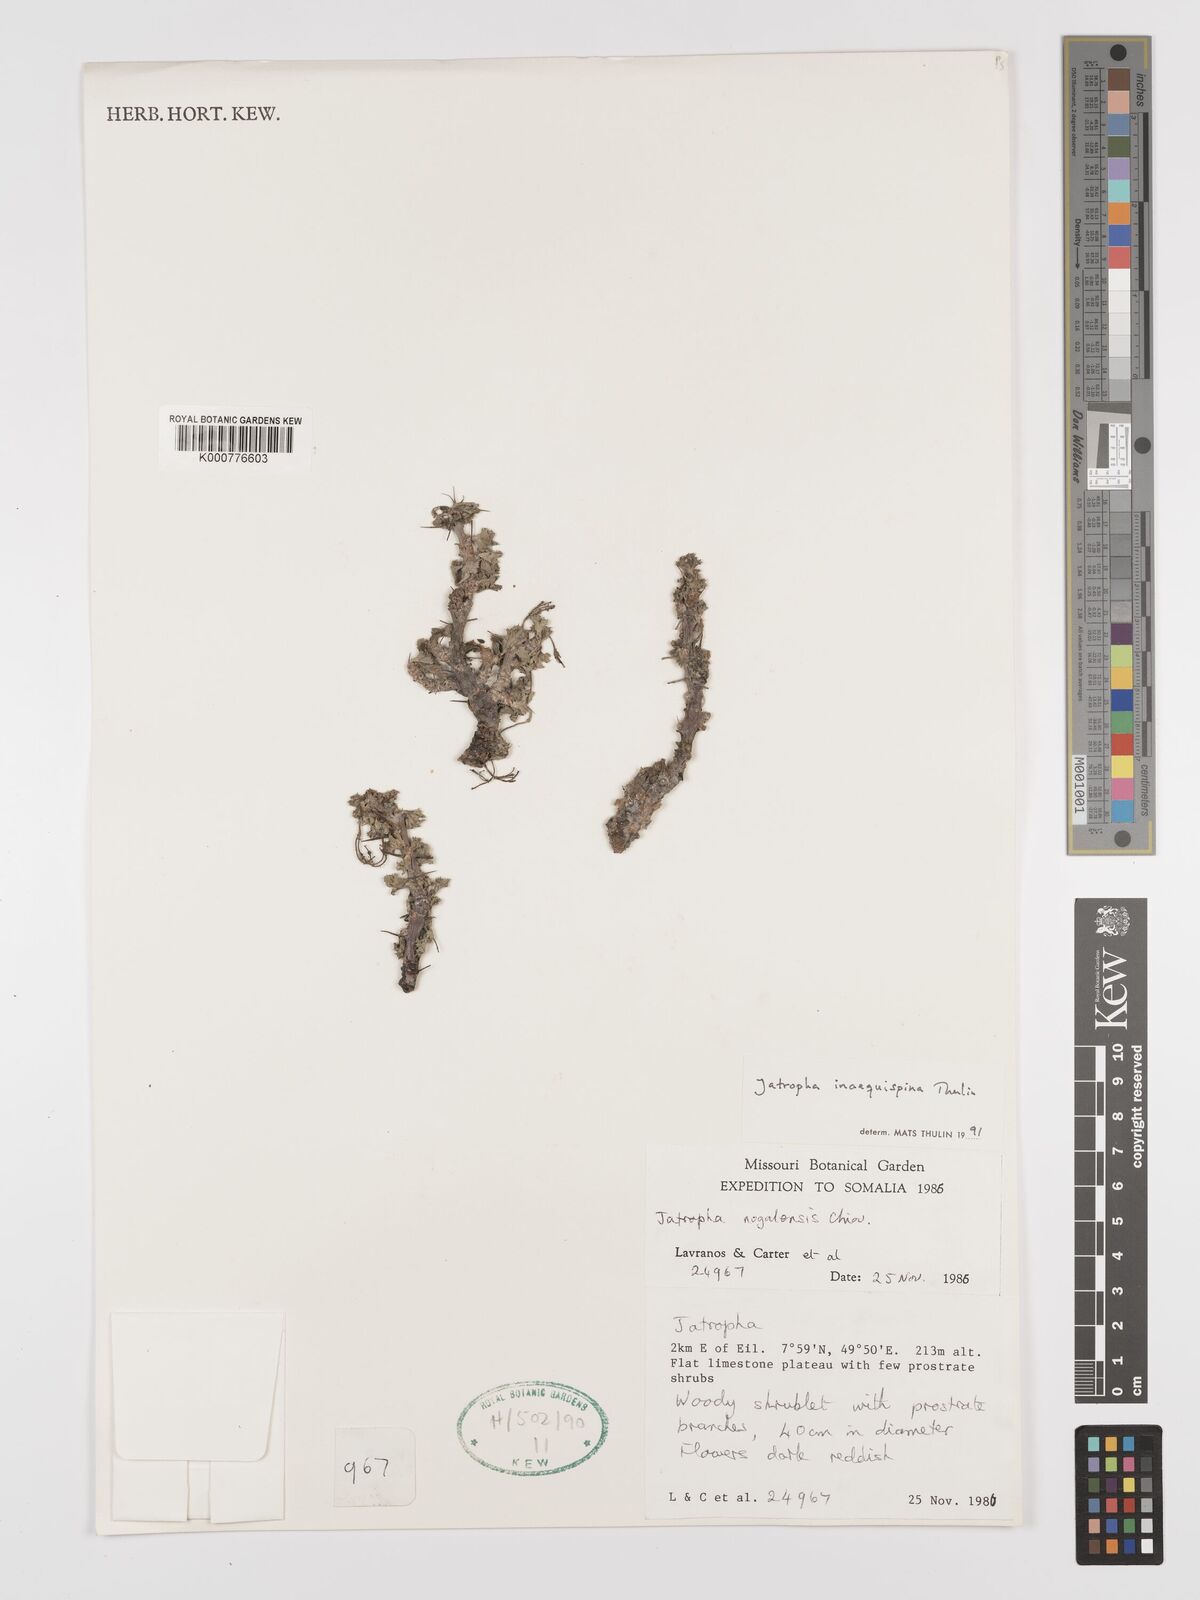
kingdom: Plantae
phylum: Tracheophyta
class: Magnoliopsida
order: Malpighiales
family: Euphorbiaceae
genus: Jatropha
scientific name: Jatropha inaequispina
